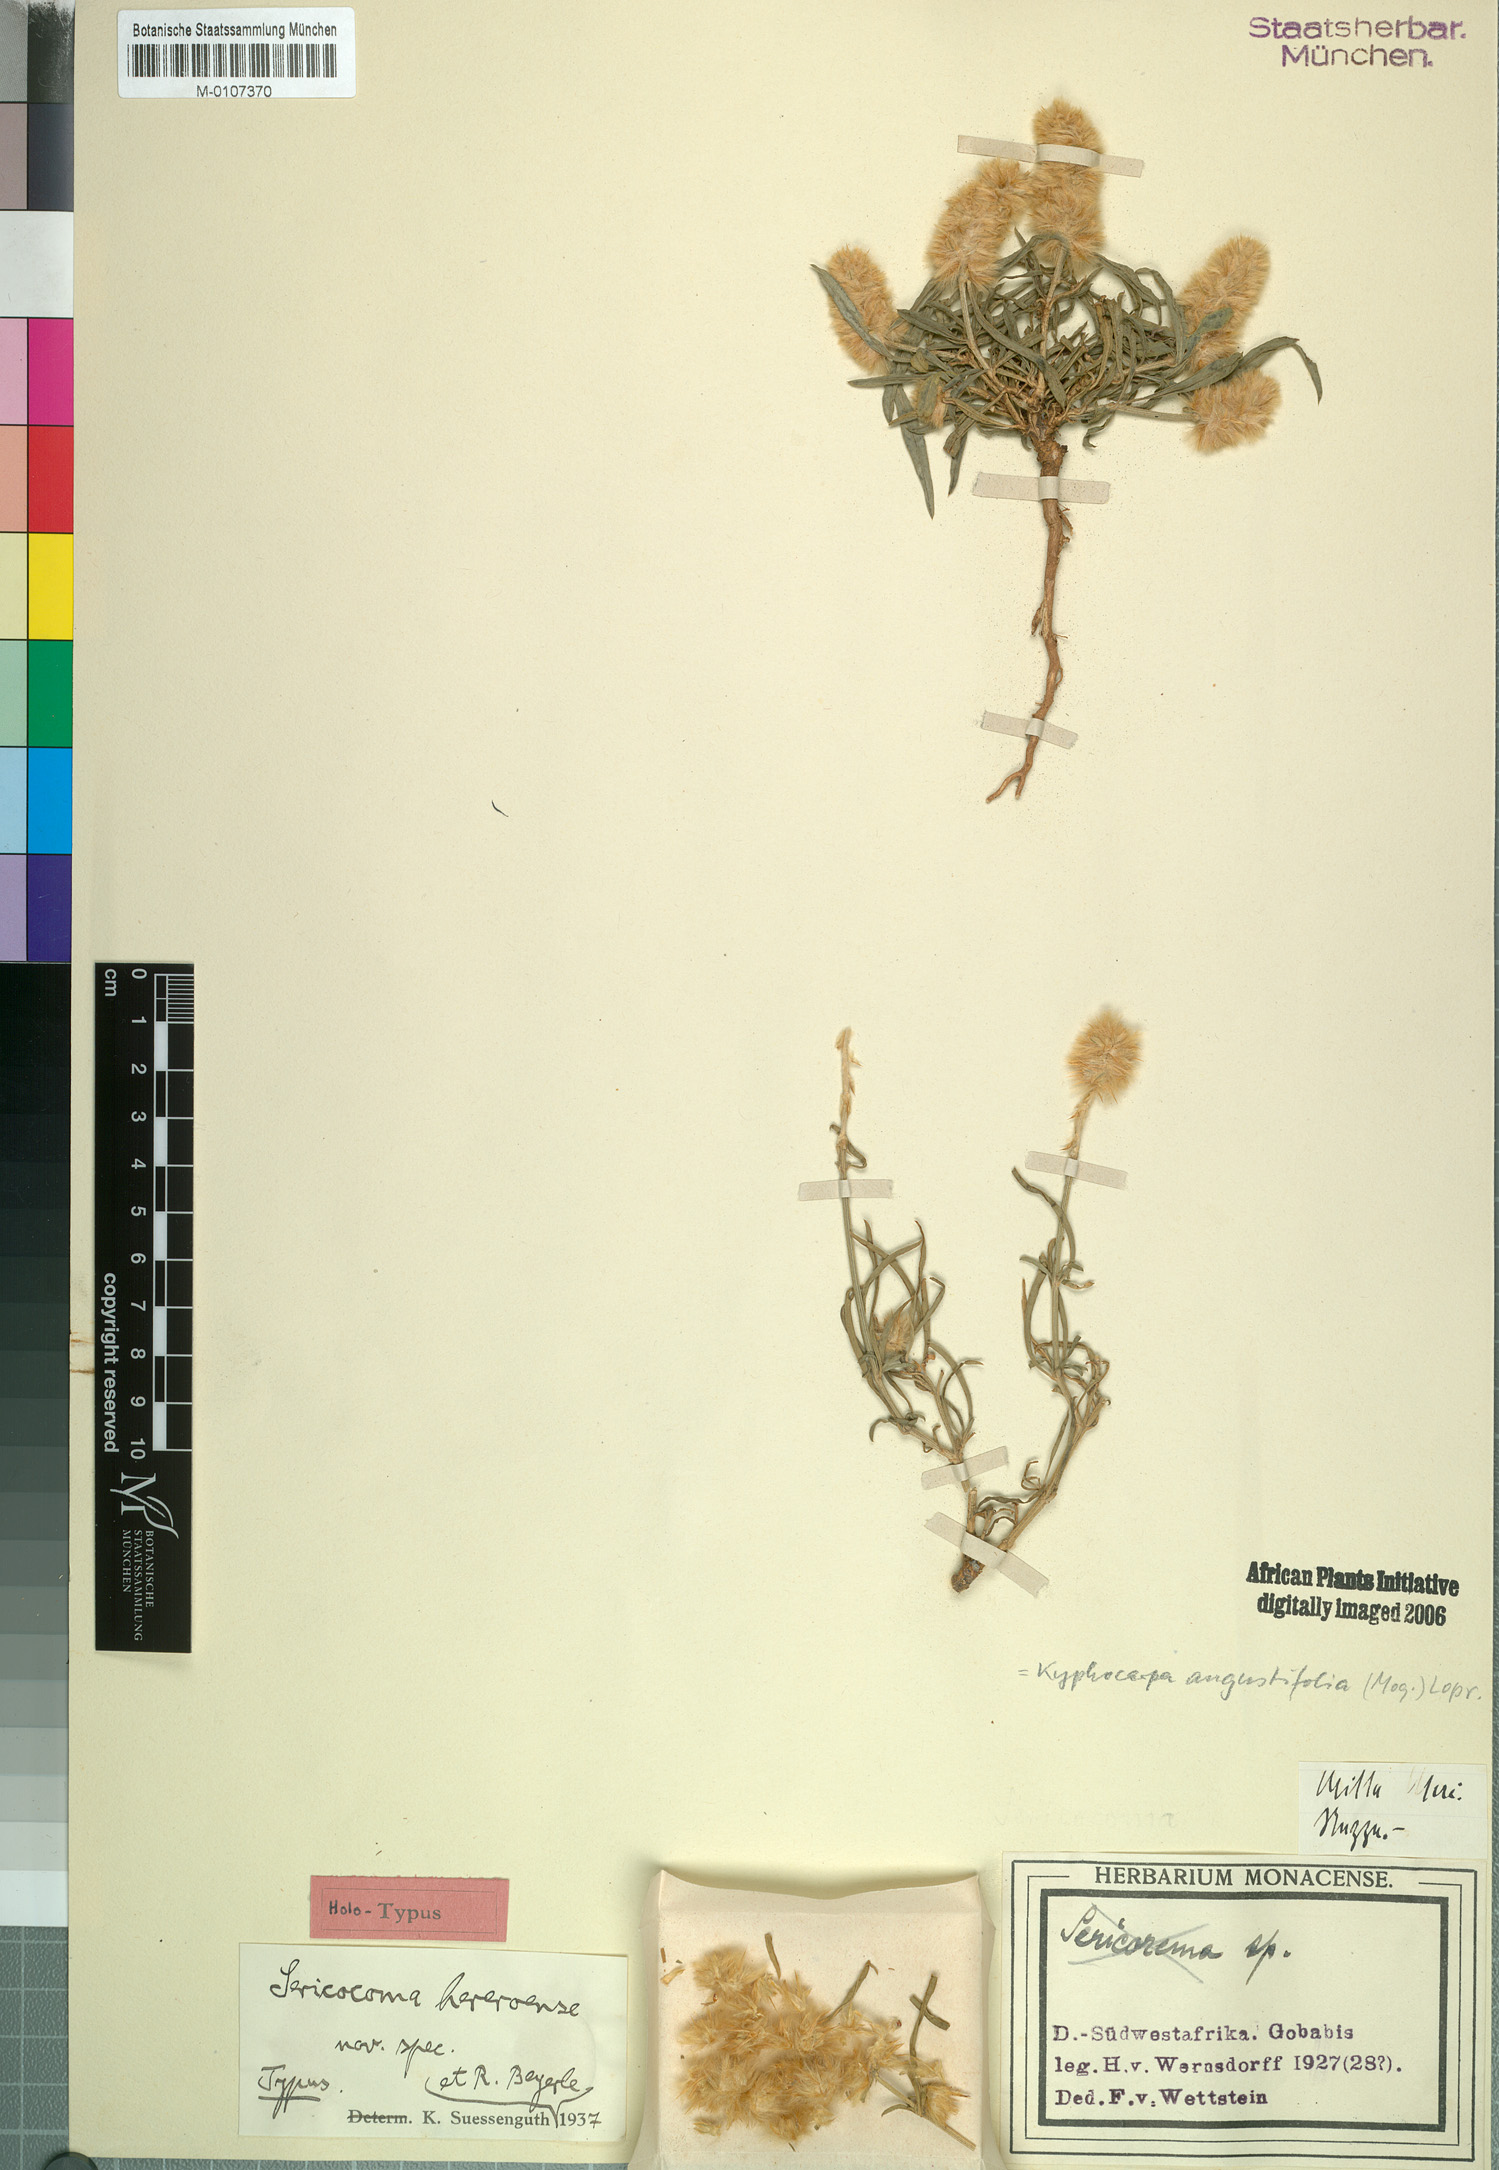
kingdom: Plantae
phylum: Tracheophyta
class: Magnoliopsida
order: Caryophyllales
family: Amaranthaceae
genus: Cyphocarpa
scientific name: Cyphocarpa Kyphocarpa angustifolia
